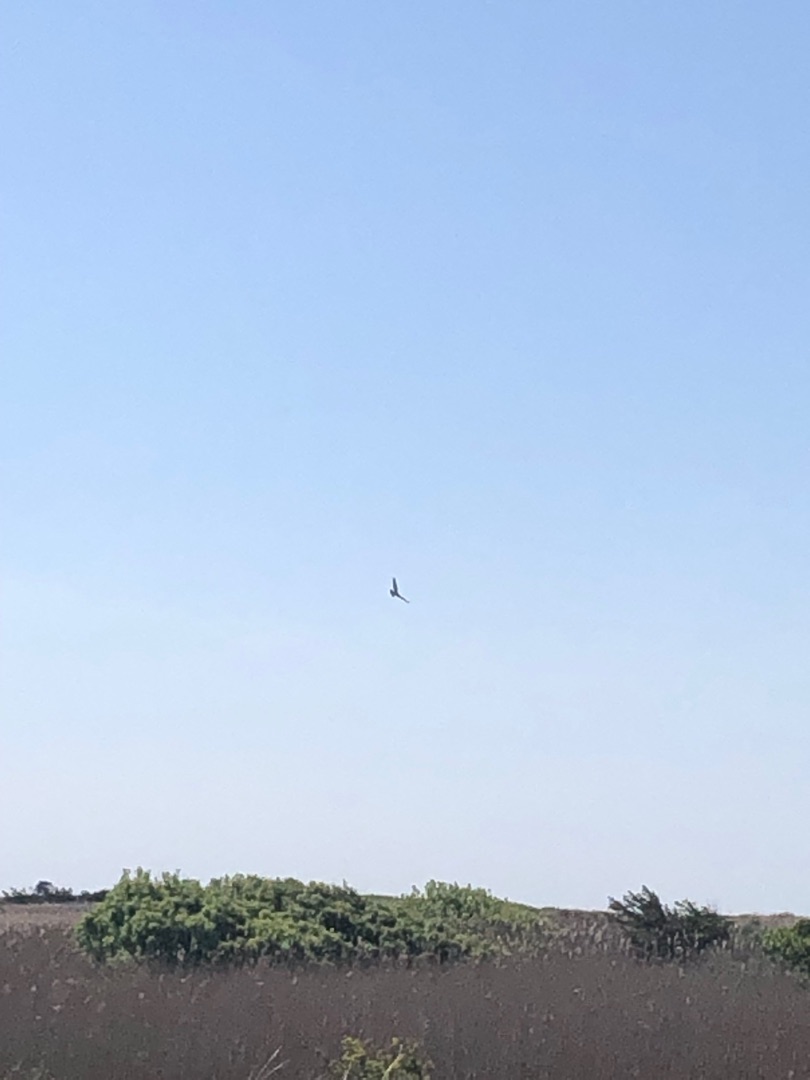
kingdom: Animalia
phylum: Chordata
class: Aves
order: Accipitriformes
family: Accipitridae
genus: Buteo
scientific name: Buteo buteo
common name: Musvåge
